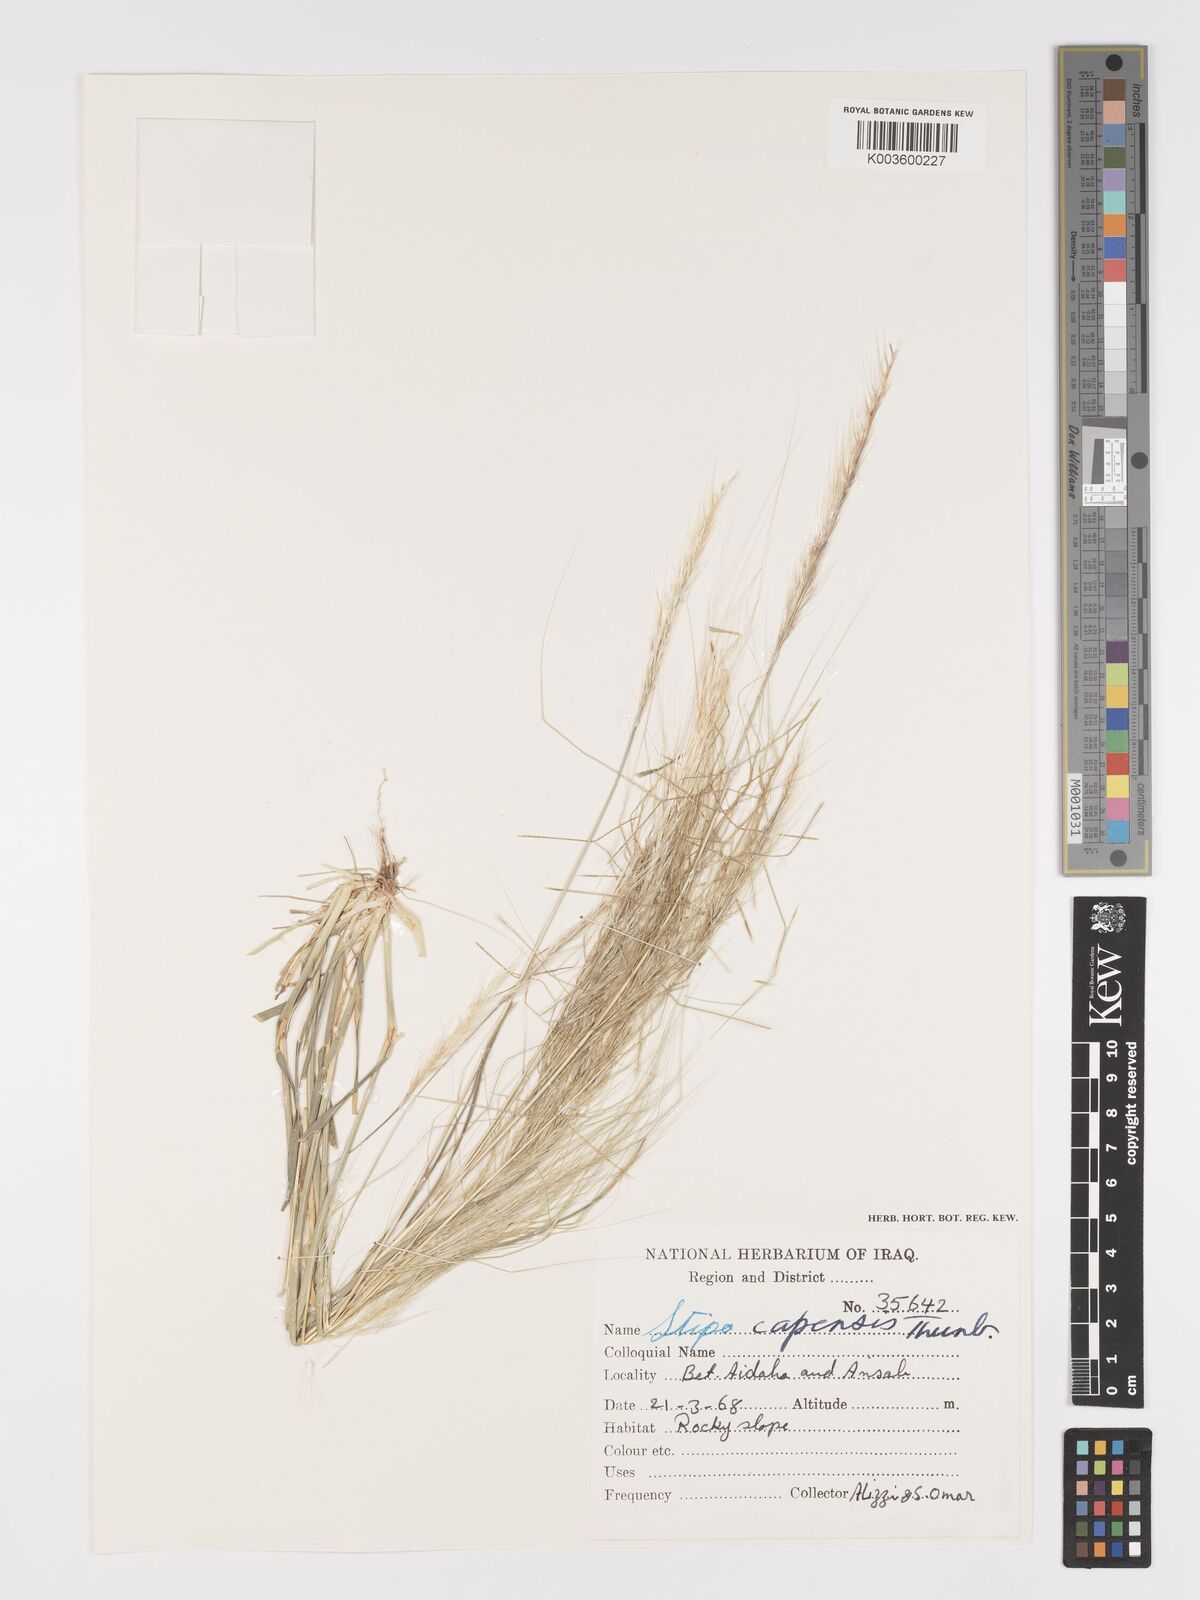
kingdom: Plantae
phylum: Tracheophyta
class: Liliopsida
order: Poales
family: Poaceae
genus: Stipellula
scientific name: Stipellula capensis
